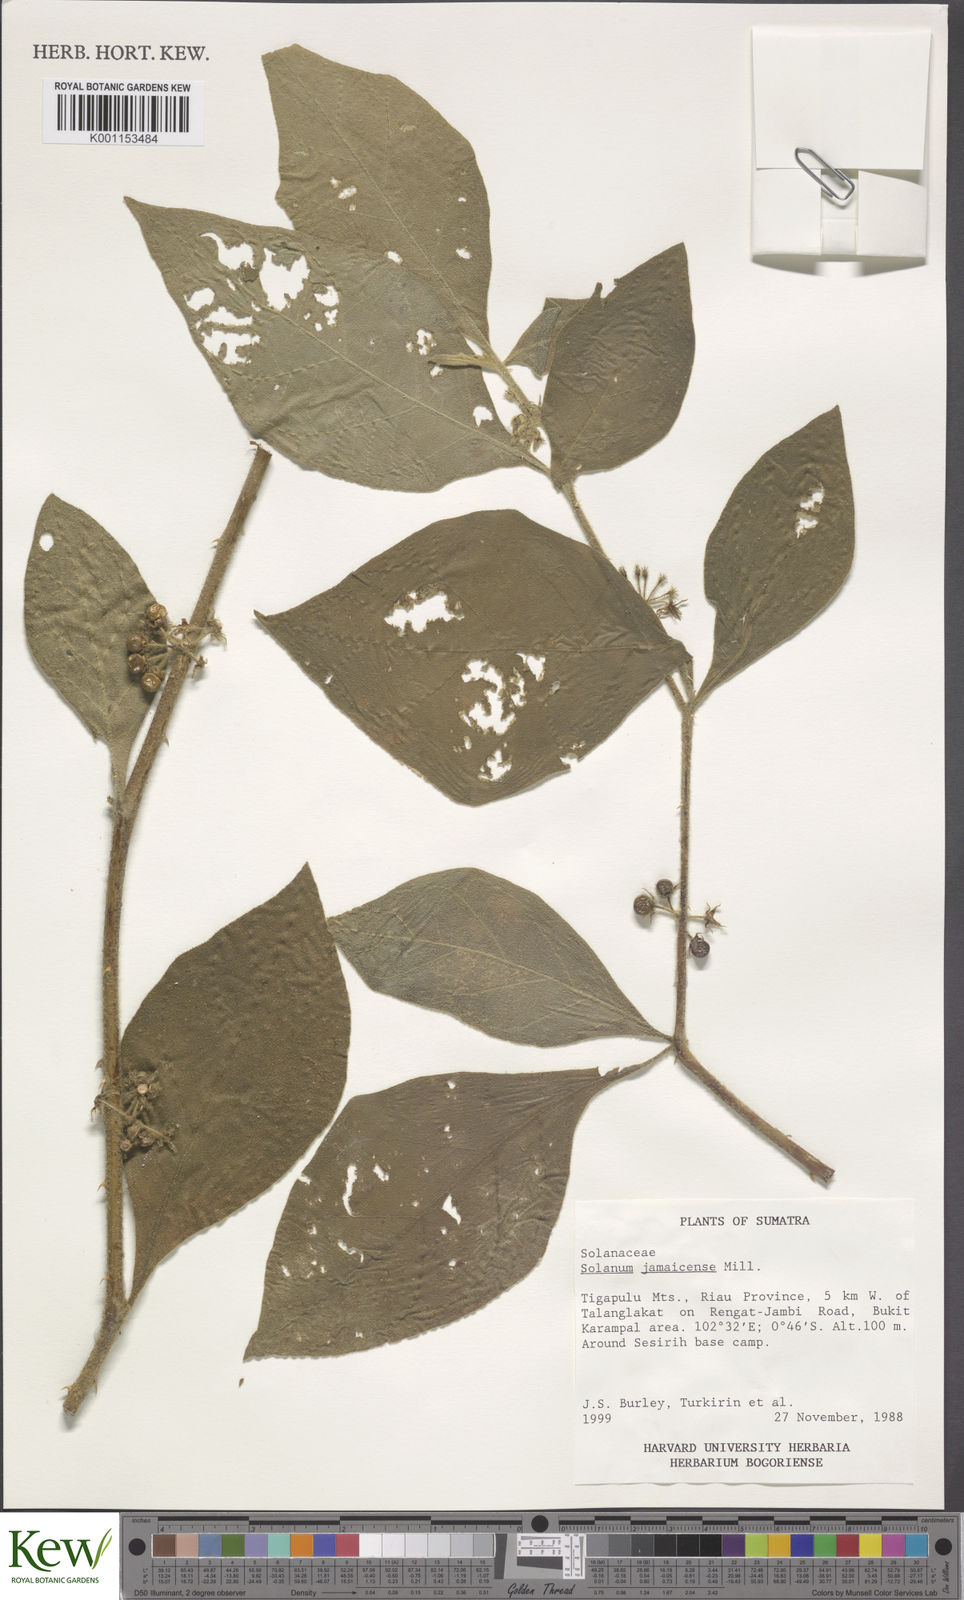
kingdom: Plantae
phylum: Tracheophyta
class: Magnoliopsida
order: Solanales
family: Solanaceae
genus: Solanum
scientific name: Solanum jamaicense
